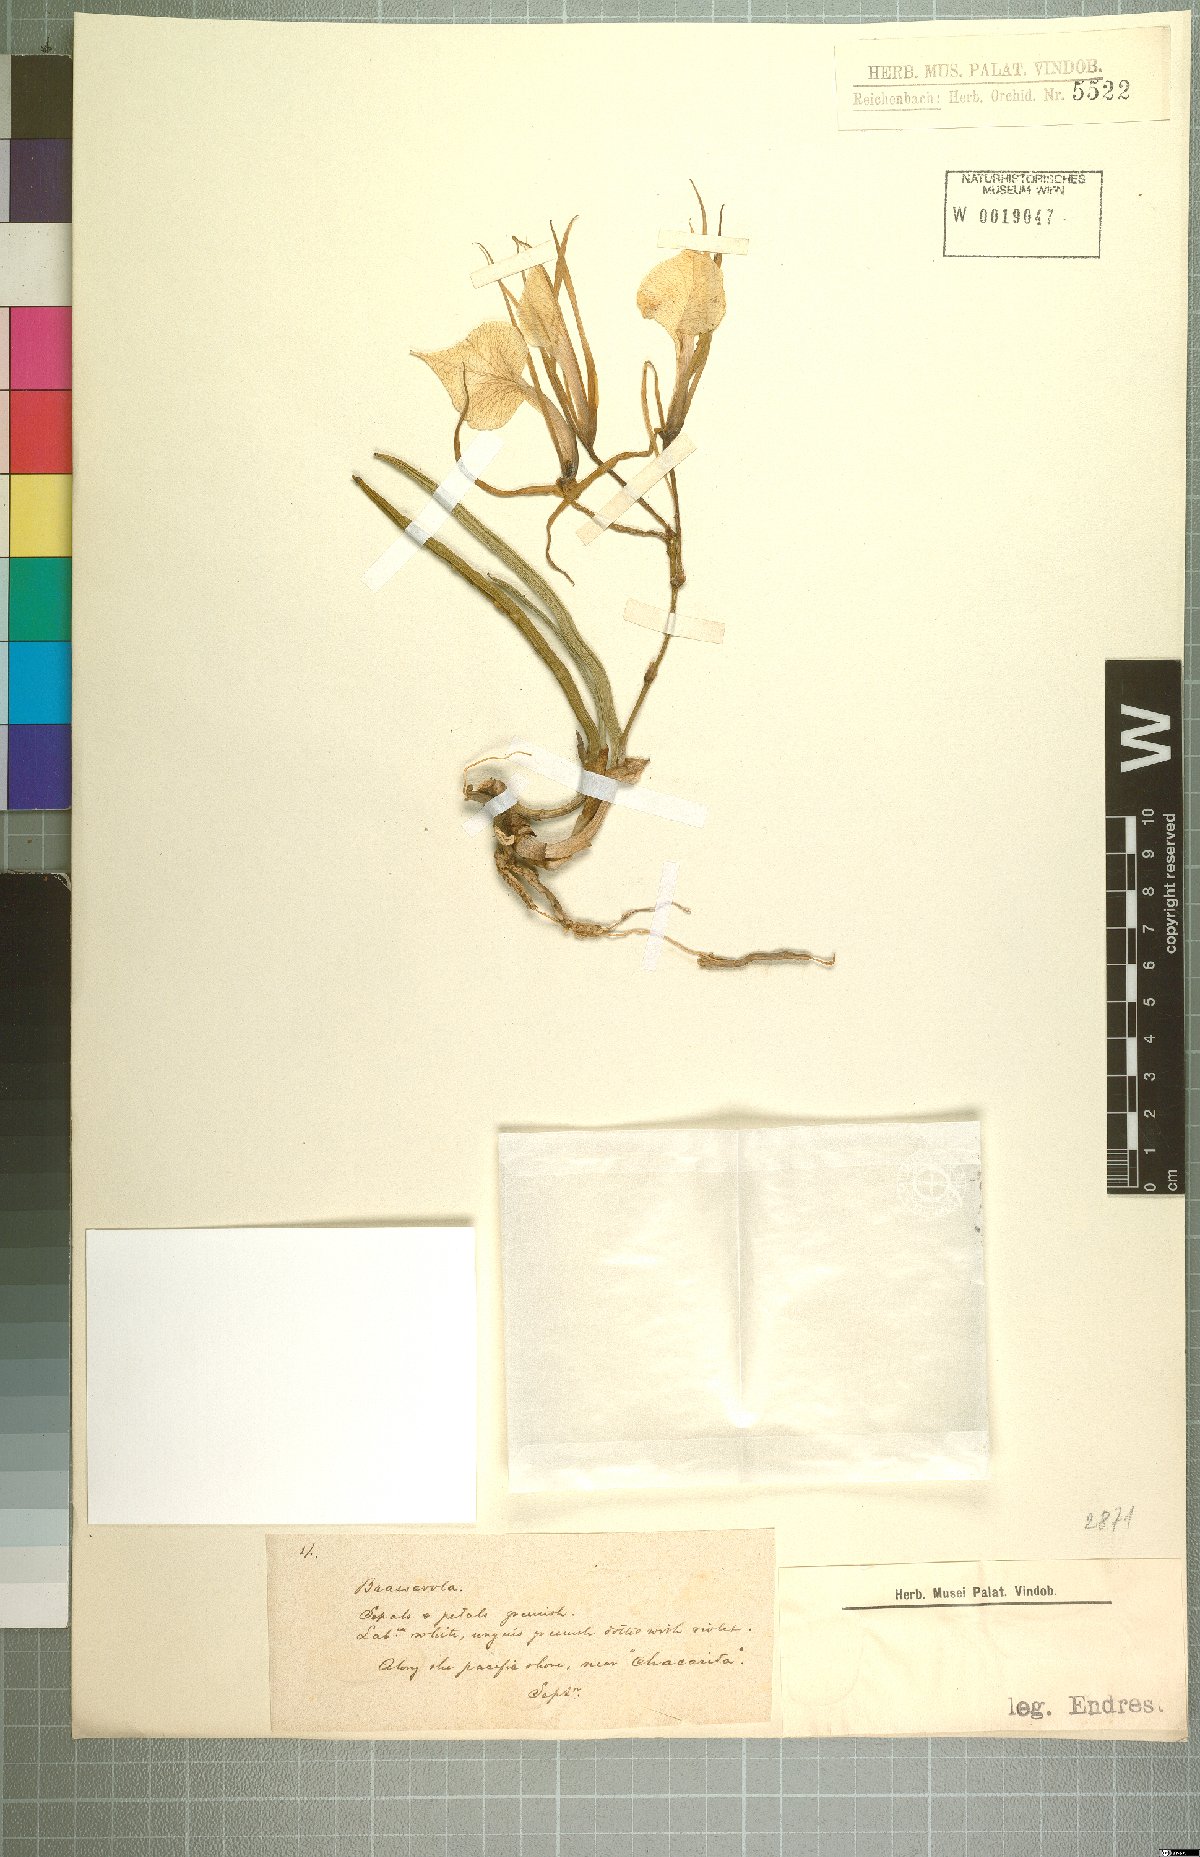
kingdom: Plantae
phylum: Tracheophyta
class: Liliopsida
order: Asparagales
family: Orchidaceae
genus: Brassavola
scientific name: Brassavola nodosa
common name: Lady of the night
